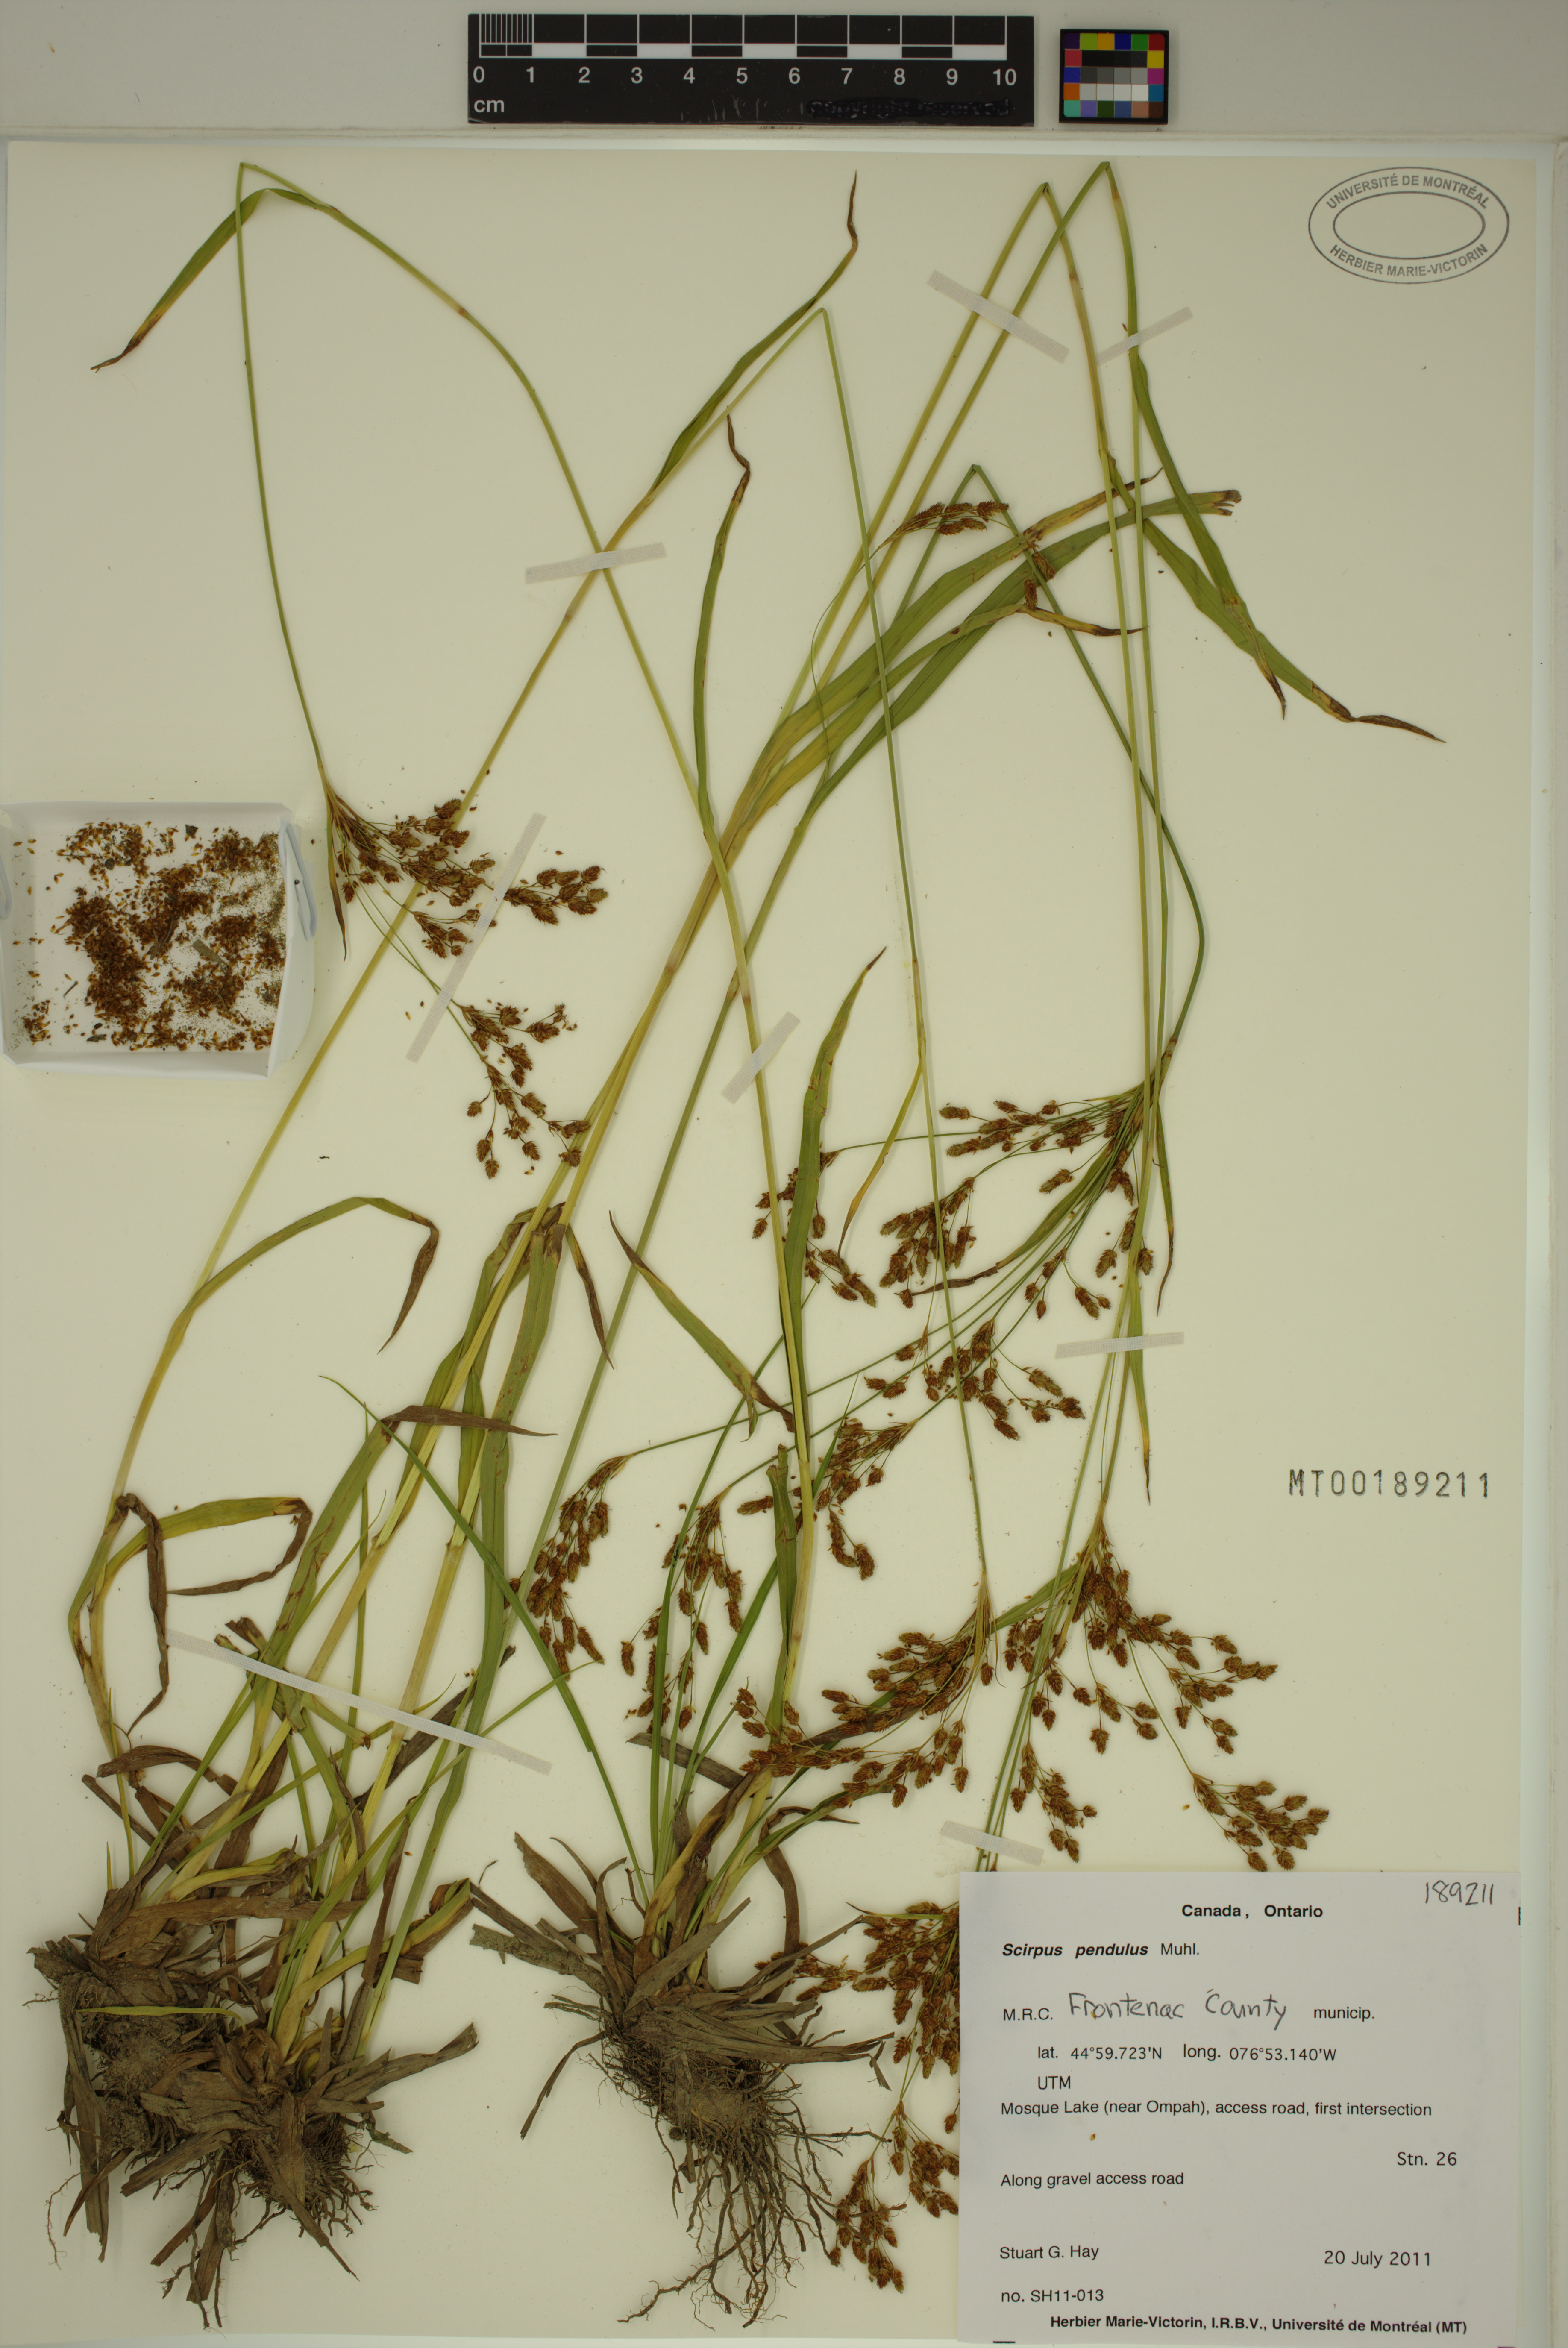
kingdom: Plantae
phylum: Tracheophyta
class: Liliopsida
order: Poales
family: Cyperaceae
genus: Scirpus
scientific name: Scirpus pendulus
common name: Nodding bulrush
